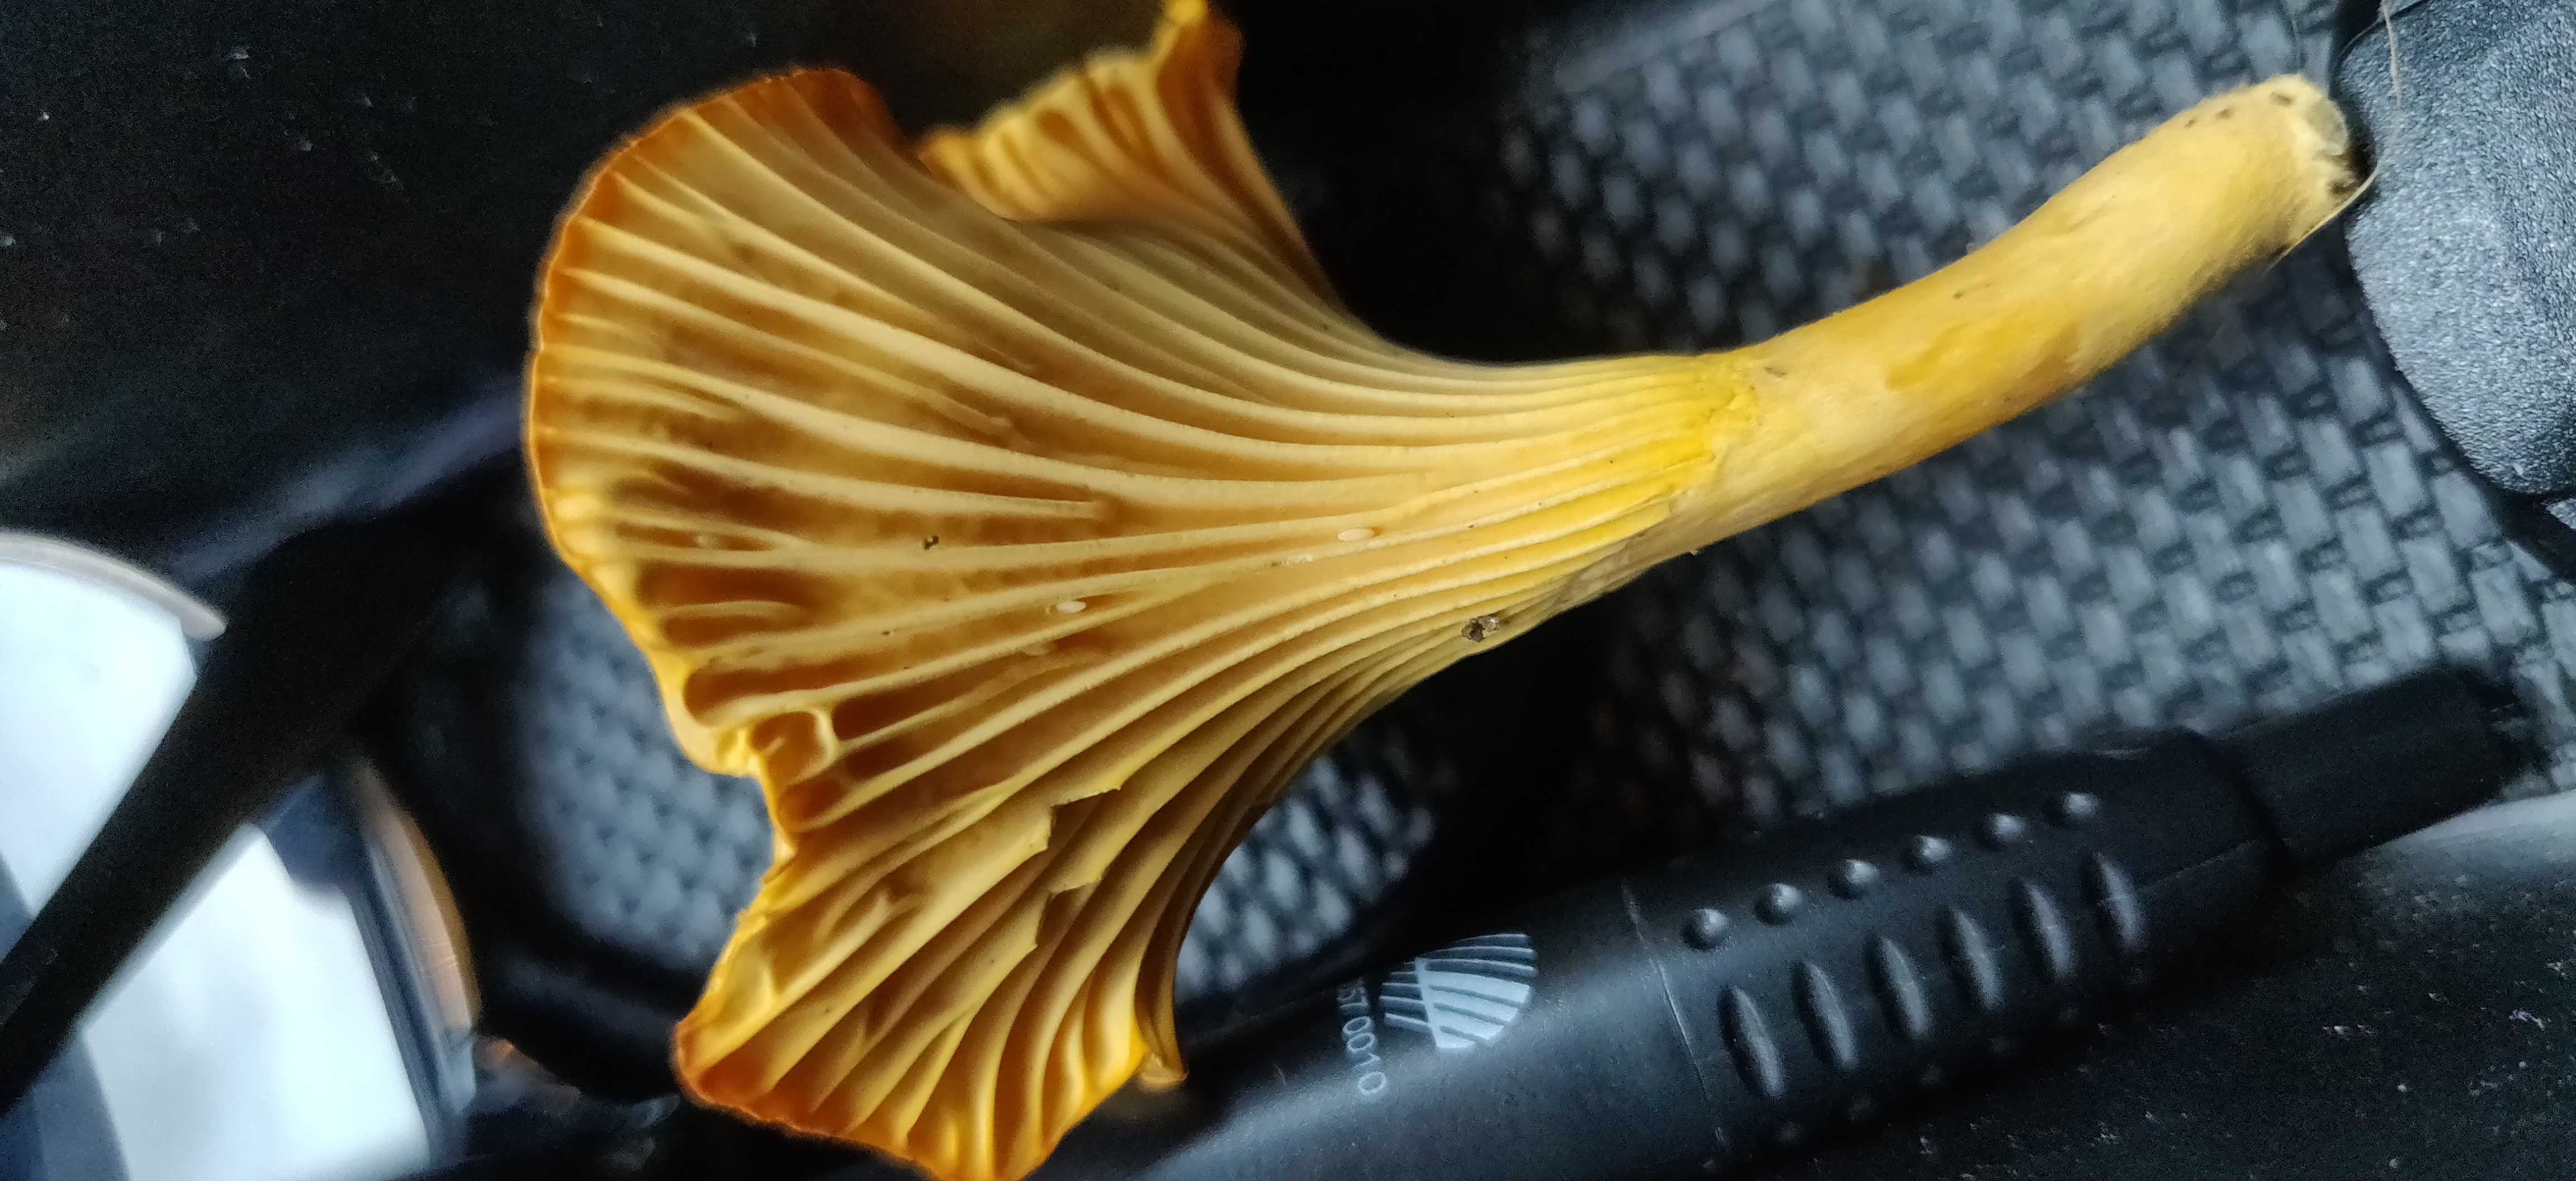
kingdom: Fungi
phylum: Basidiomycota
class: Agaricomycetes
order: Cantharellales
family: Hydnaceae
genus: Cantharellus
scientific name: Cantharellus cibarius
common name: almindelig kantarel
